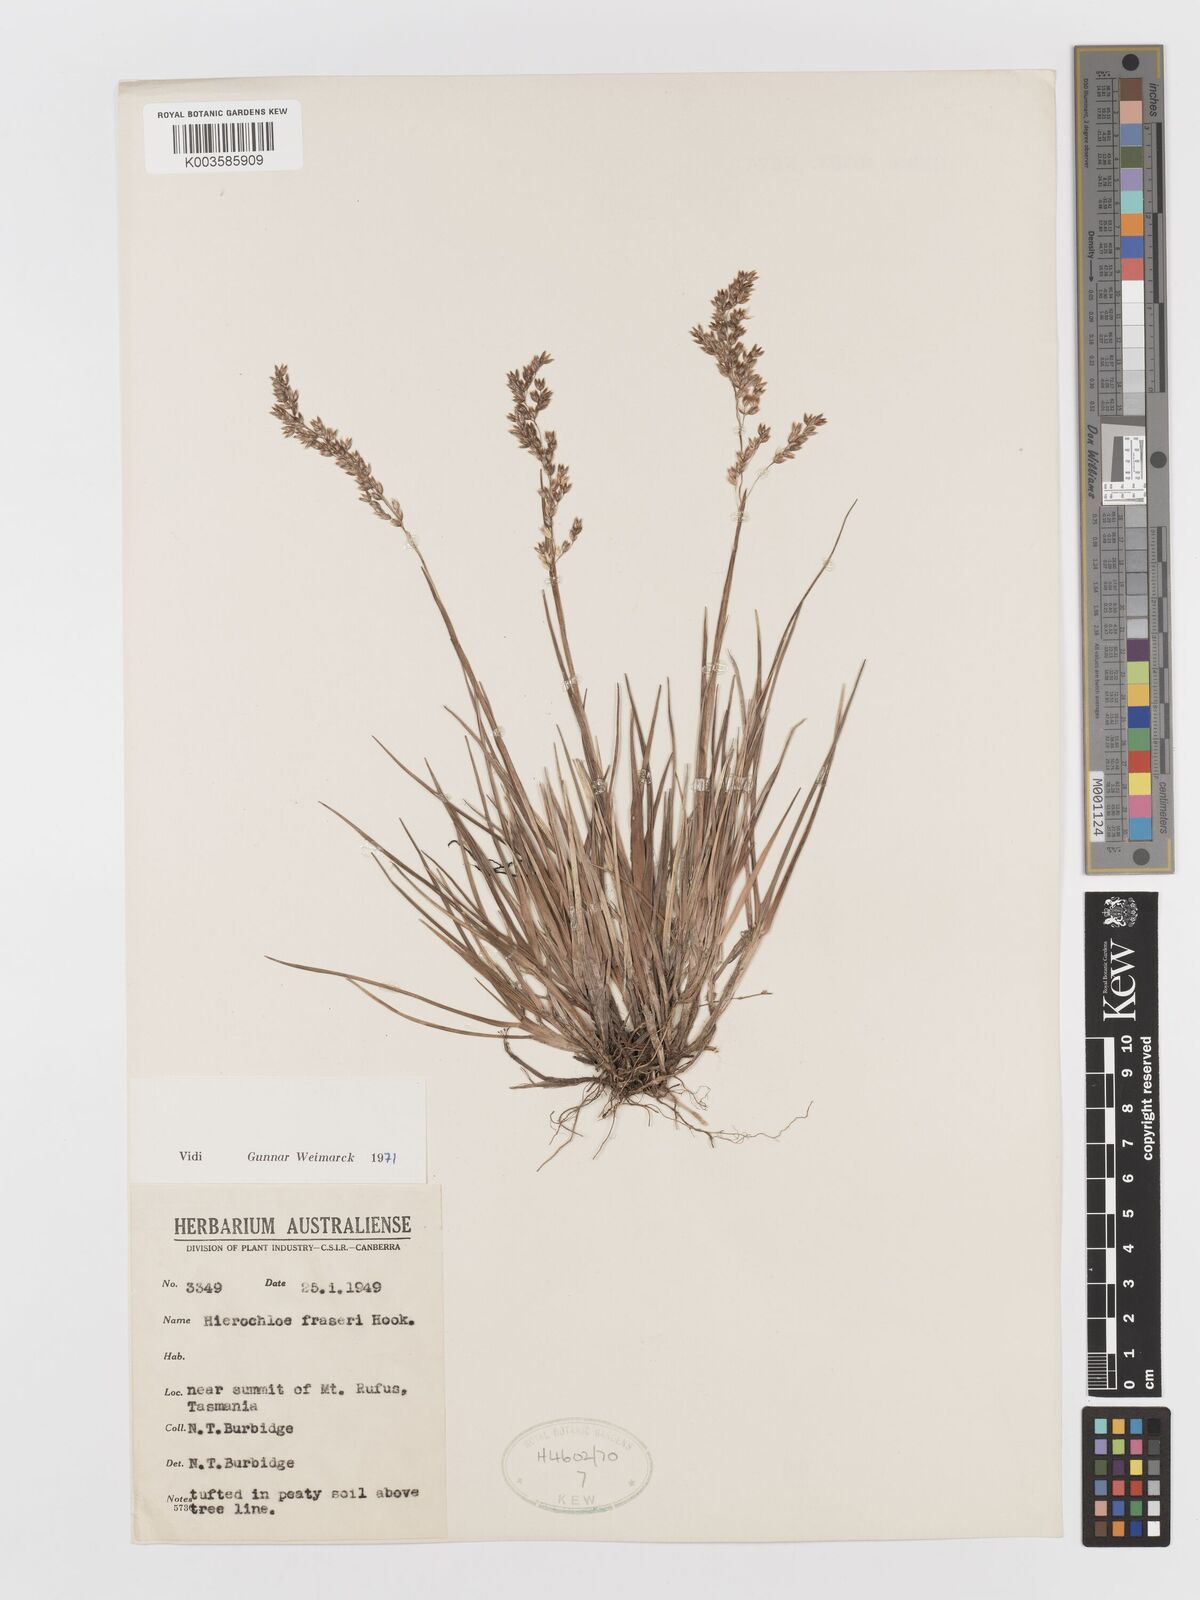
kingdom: Plantae
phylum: Tracheophyta
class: Liliopsida
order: Poales
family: Poaceae
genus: Anthoxanthum
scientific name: Anthoxanthum redolens
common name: Sweet holy grass
